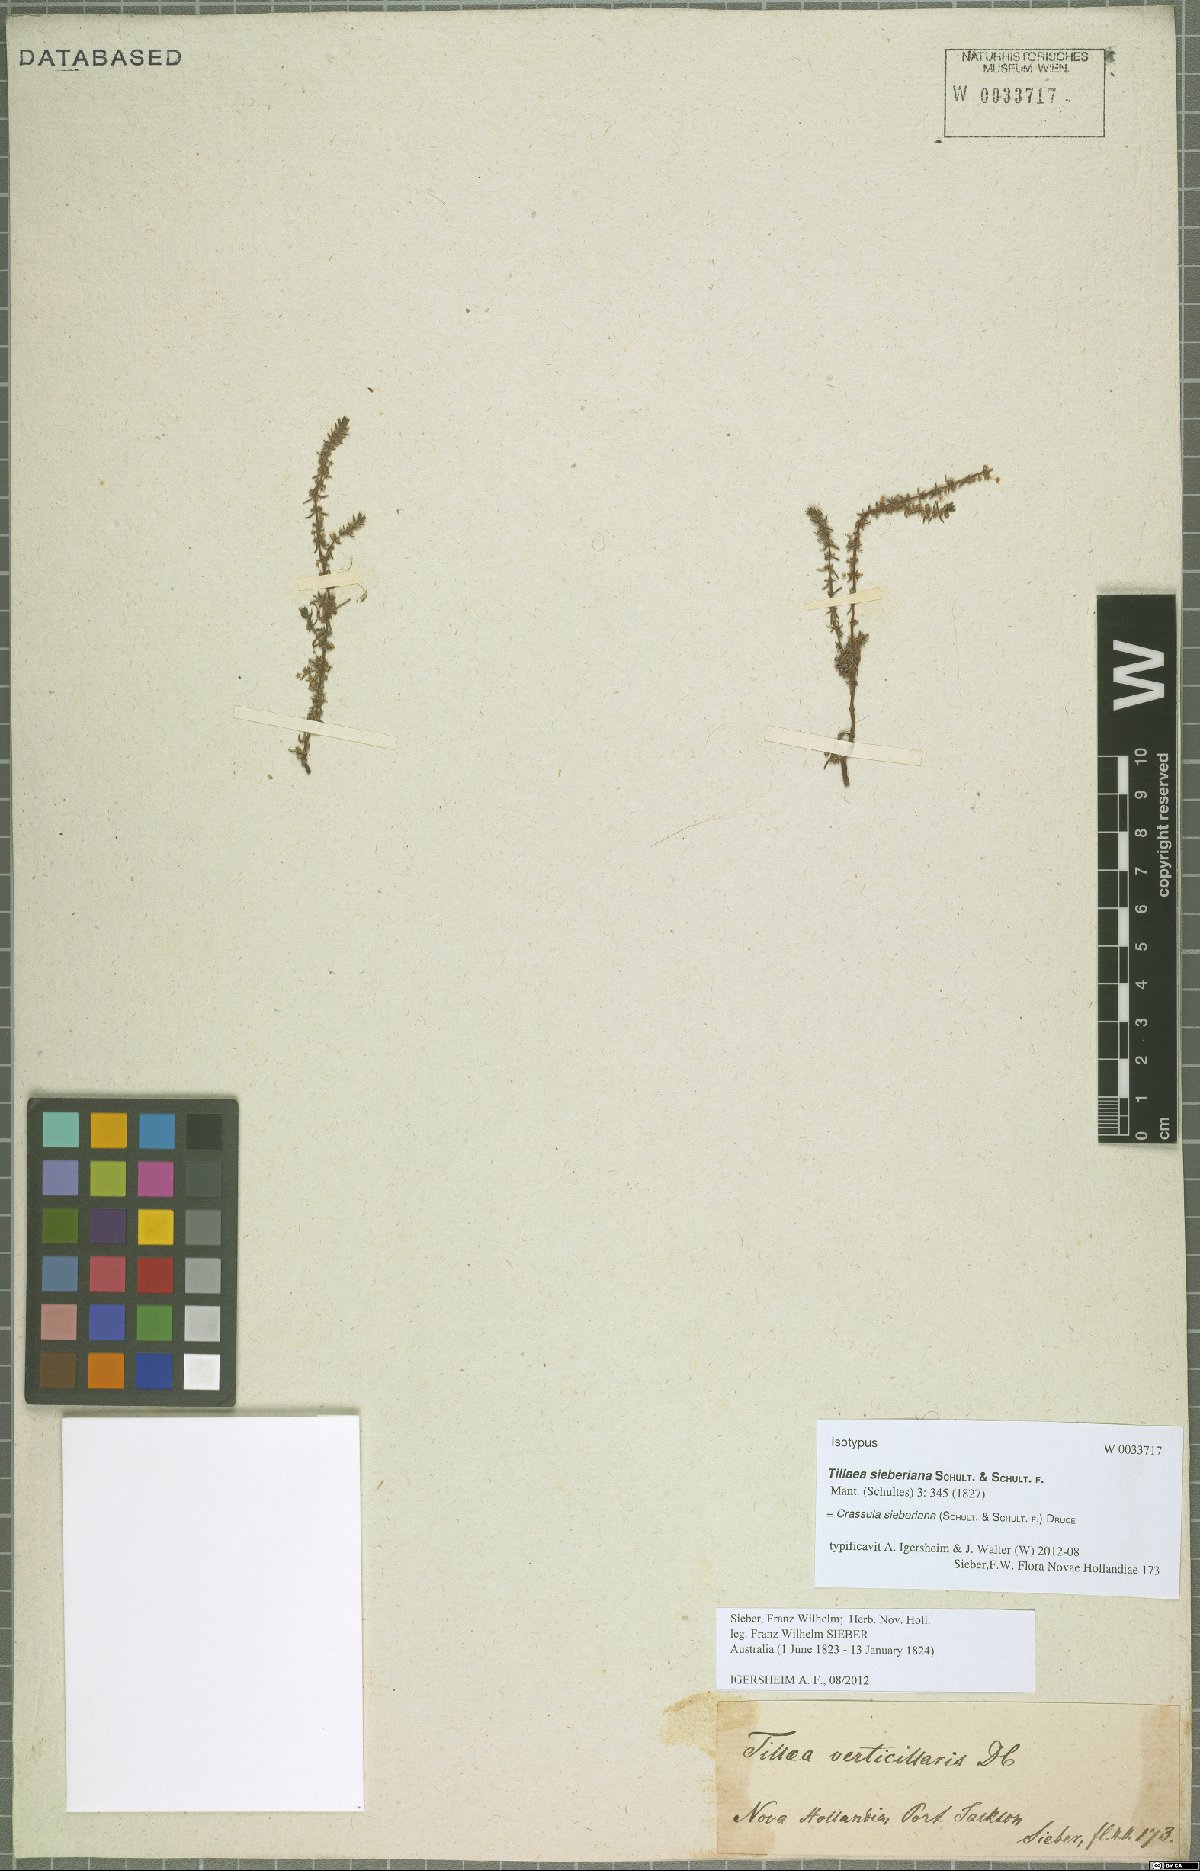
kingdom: Plantae
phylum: Tracheophyta
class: Magnoliopsida
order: Saxifragales
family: Crassulaceae
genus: Crassula
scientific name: Crassula sieberiana
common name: Siberian pygmyweed
